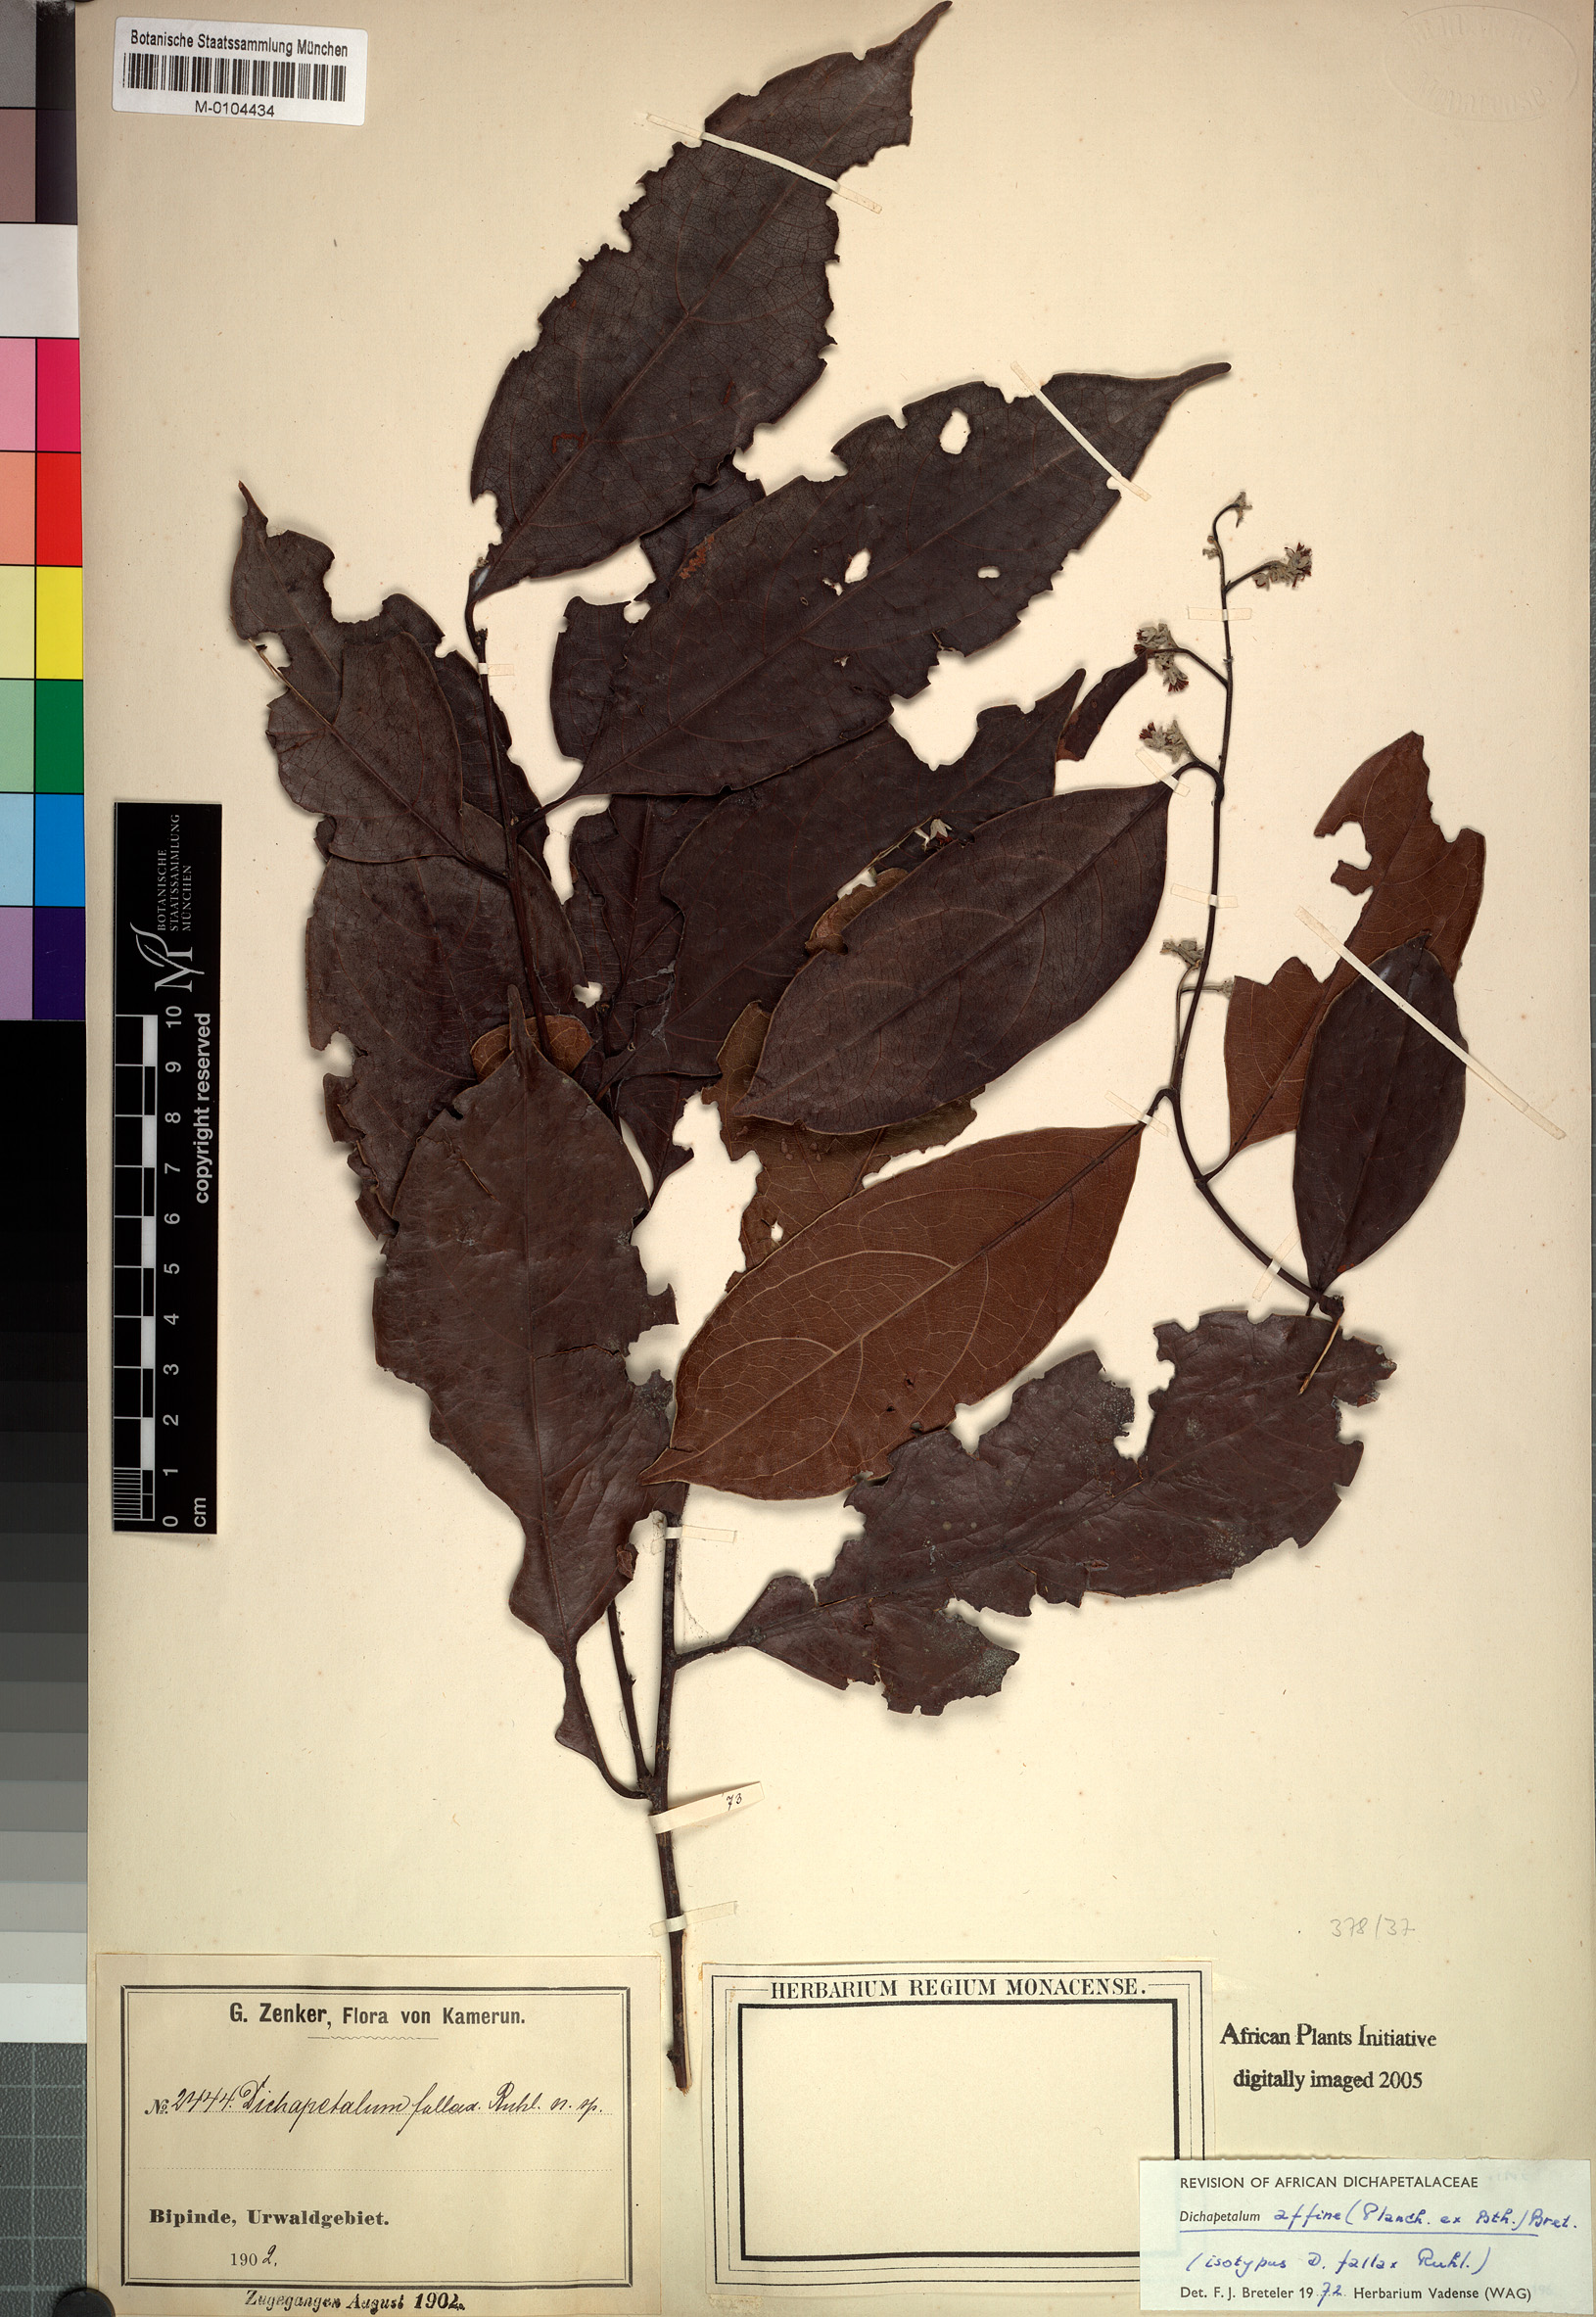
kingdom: Plantae
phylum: Tracheophyta
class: Magnoliopsida
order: Malpighiales
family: Dichapetalaceae
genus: Dichapetalum
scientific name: Dichapetalum affine
